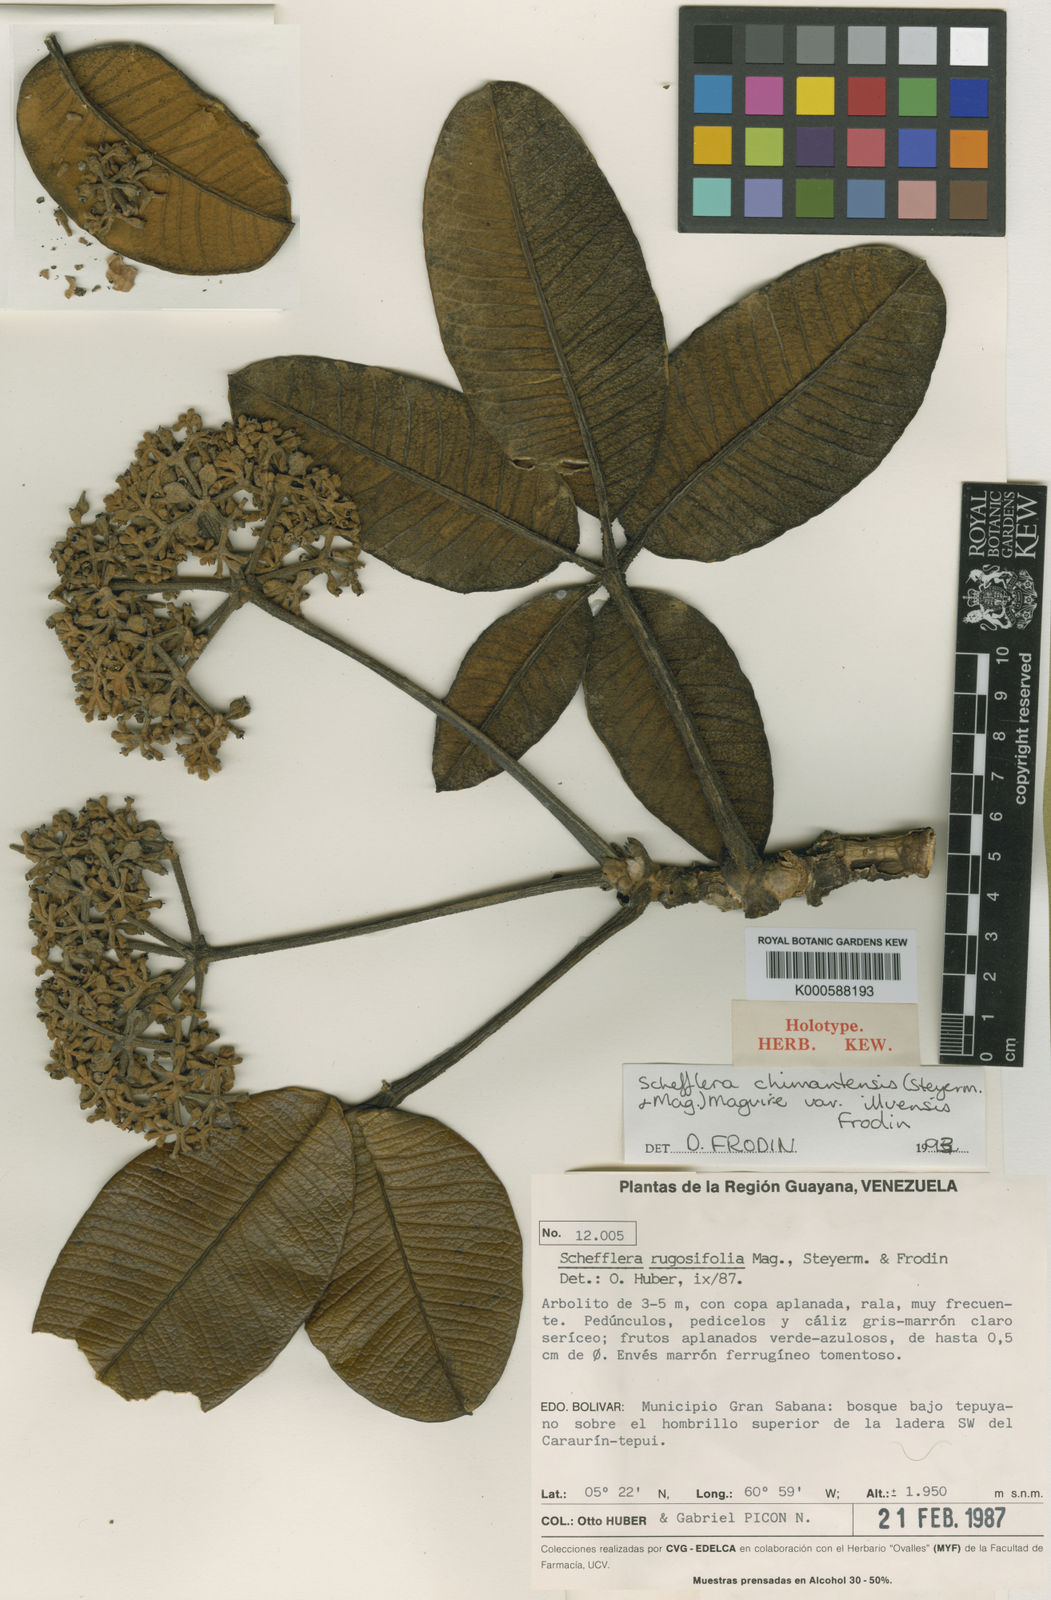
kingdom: Plantae
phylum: Tracheophyta
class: Magnoliopsida
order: Apiales
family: Araliaceae
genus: Crepinella
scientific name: Crepinella
